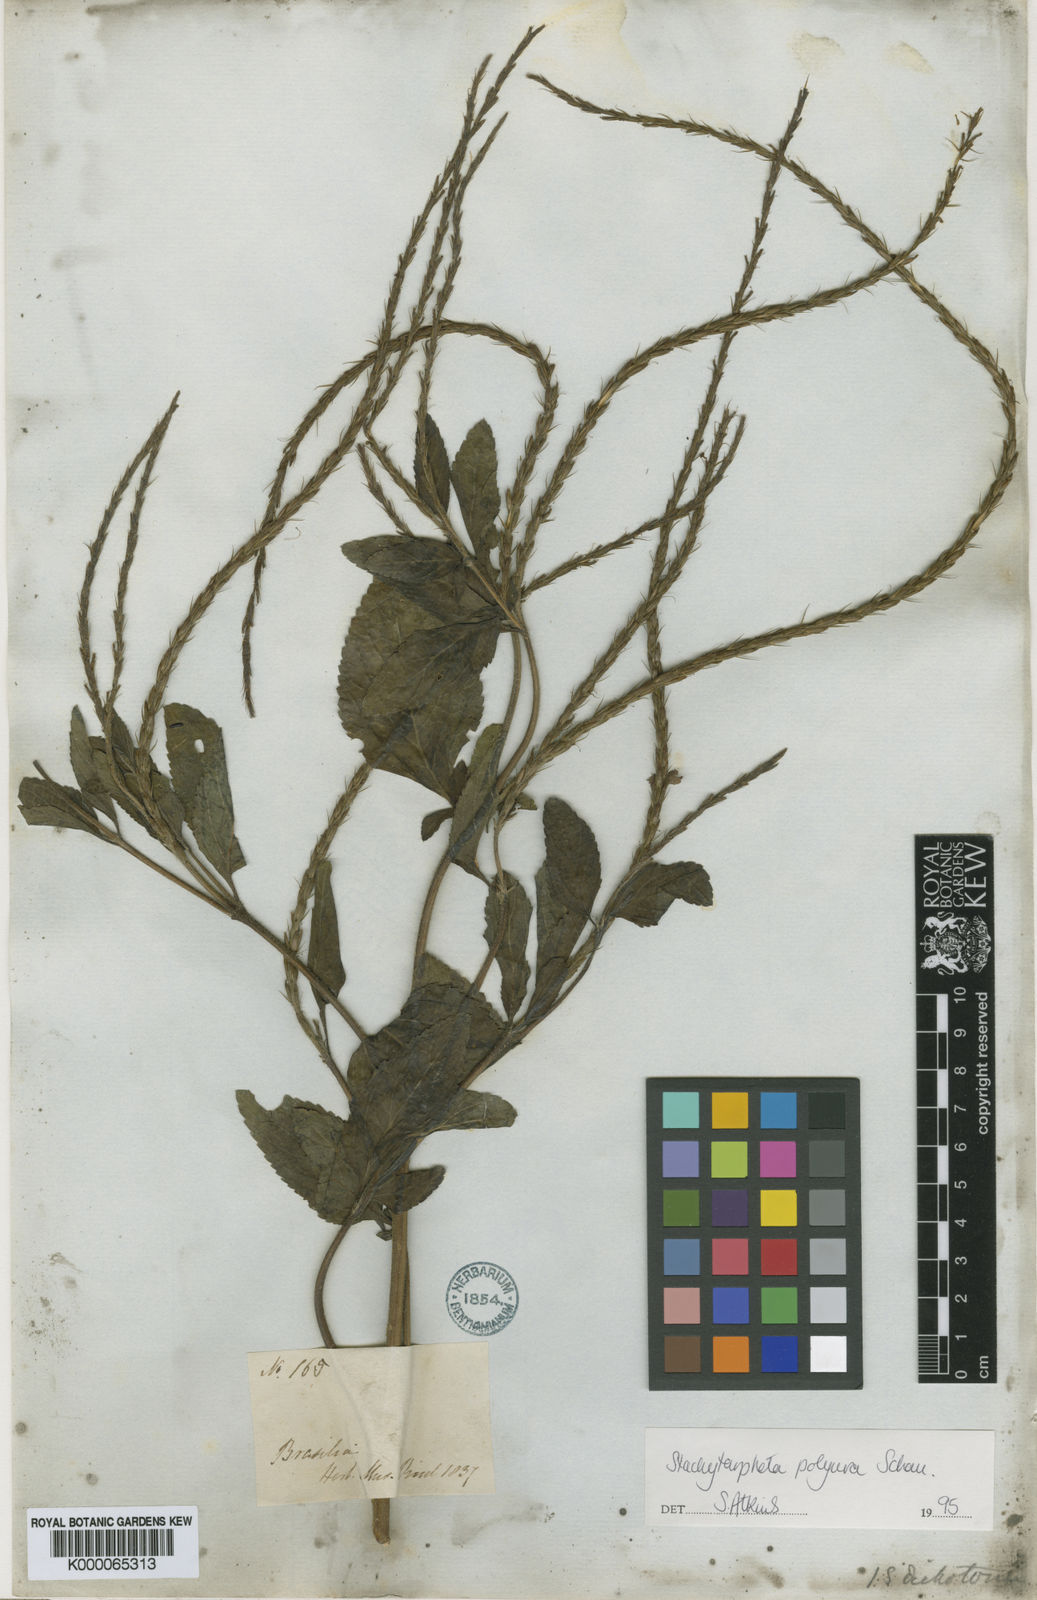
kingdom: Plantae
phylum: Tracheophyta
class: Magnoliopsida
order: Lamiales
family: Verbenaceae
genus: Stachytarpheta
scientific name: Stachytarpheta polyura
